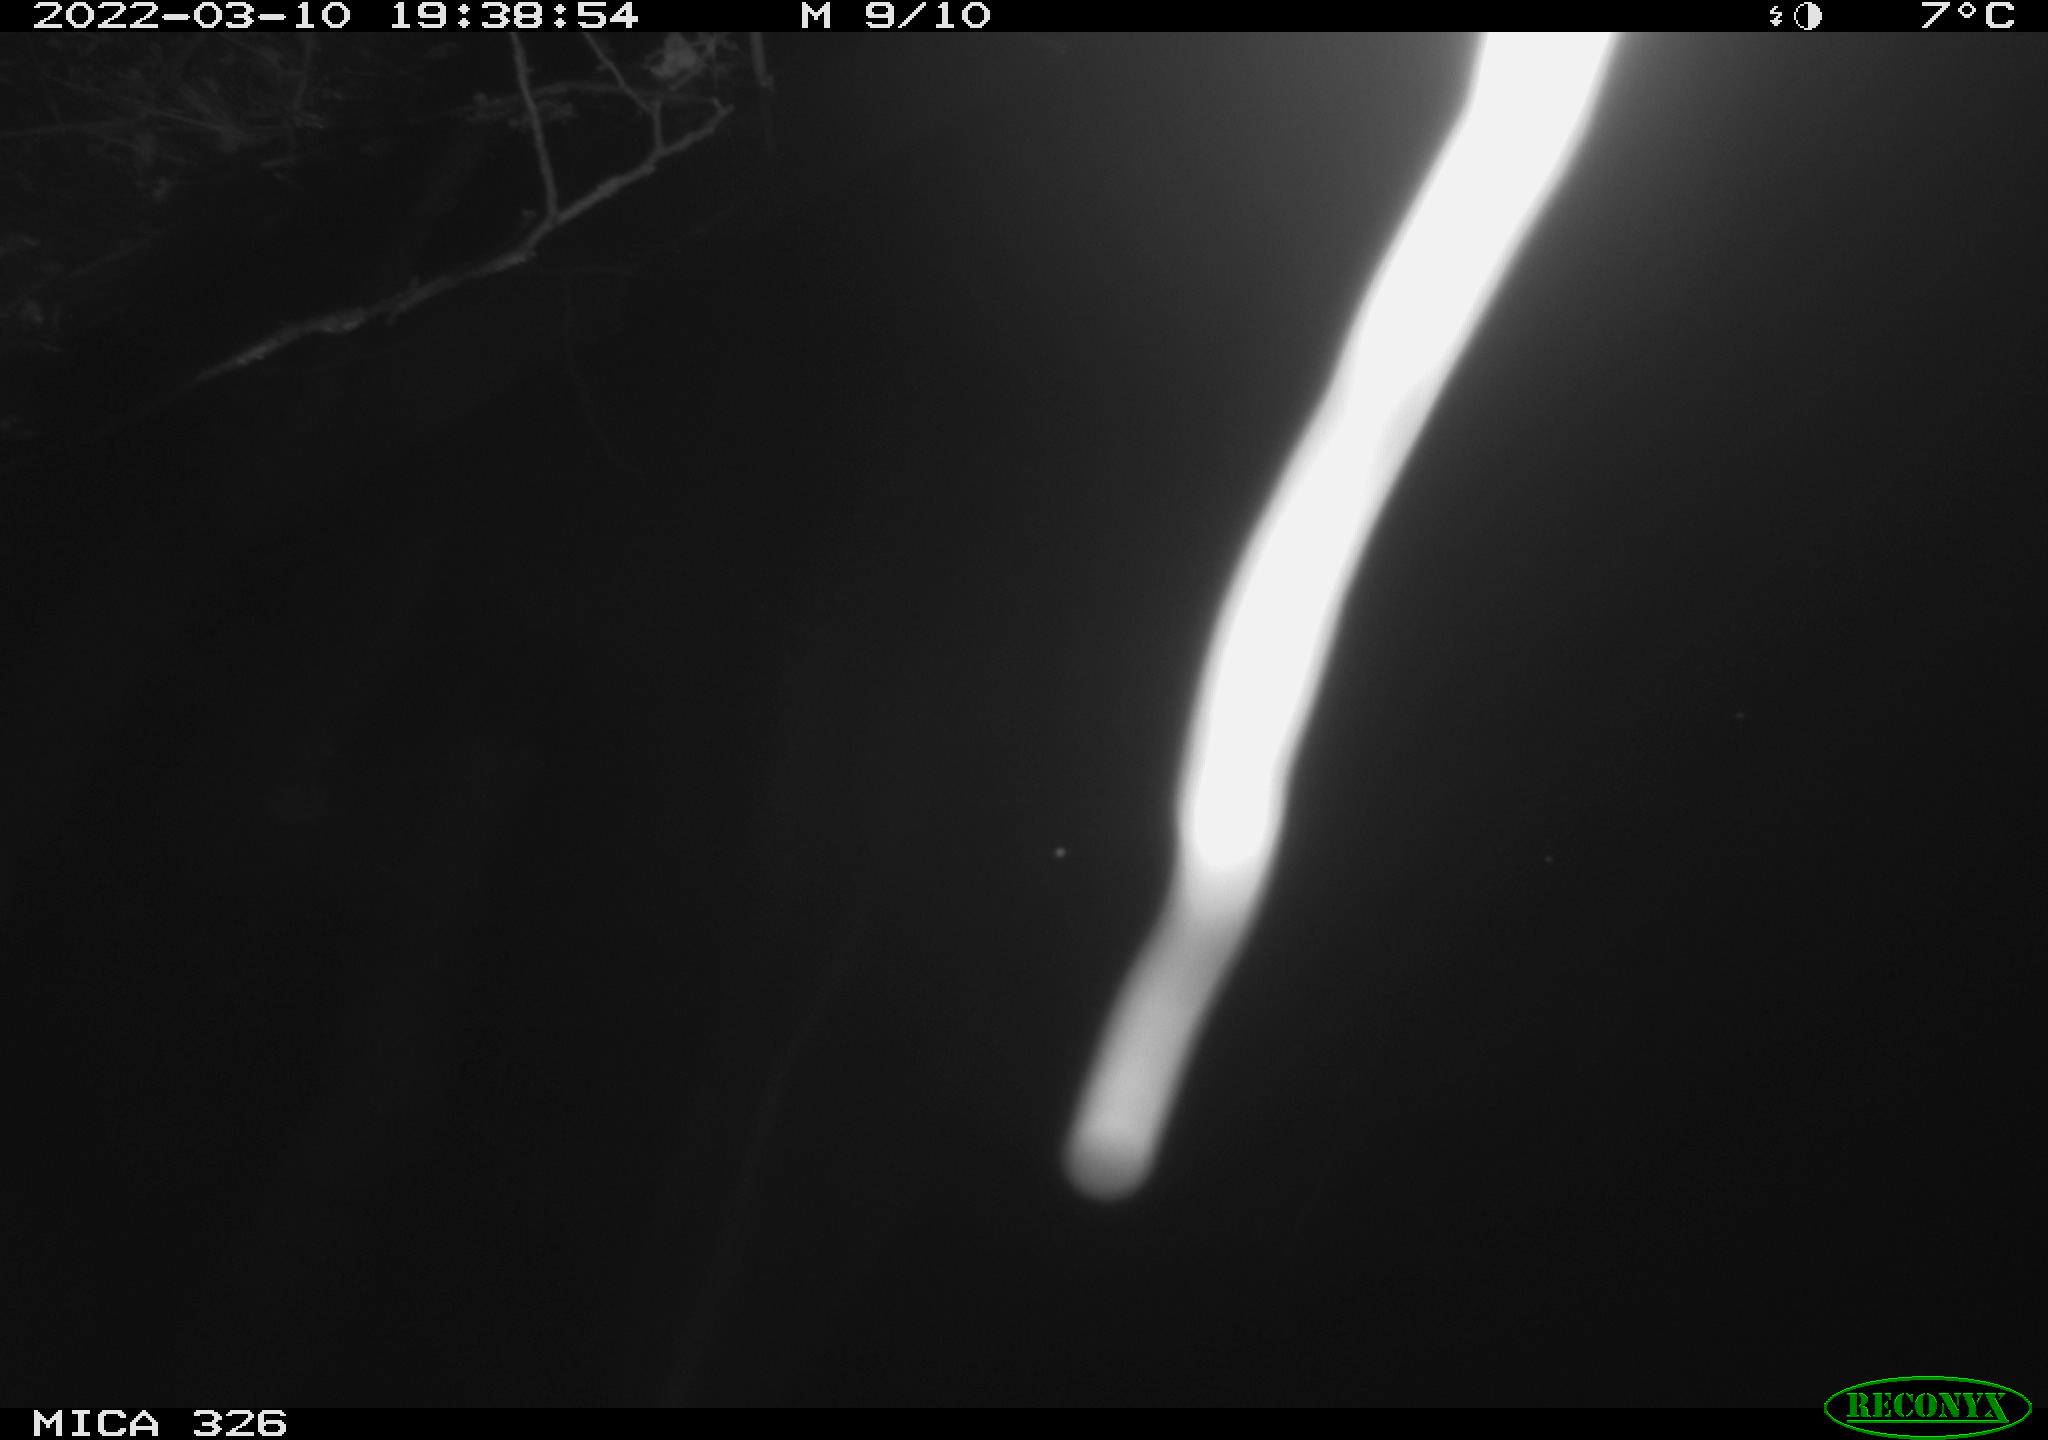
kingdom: Animalia
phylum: Chordata
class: Mammalia
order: Rodentia
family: Muridae
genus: Rattus
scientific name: Rattus norvegicus
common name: Brown rat
